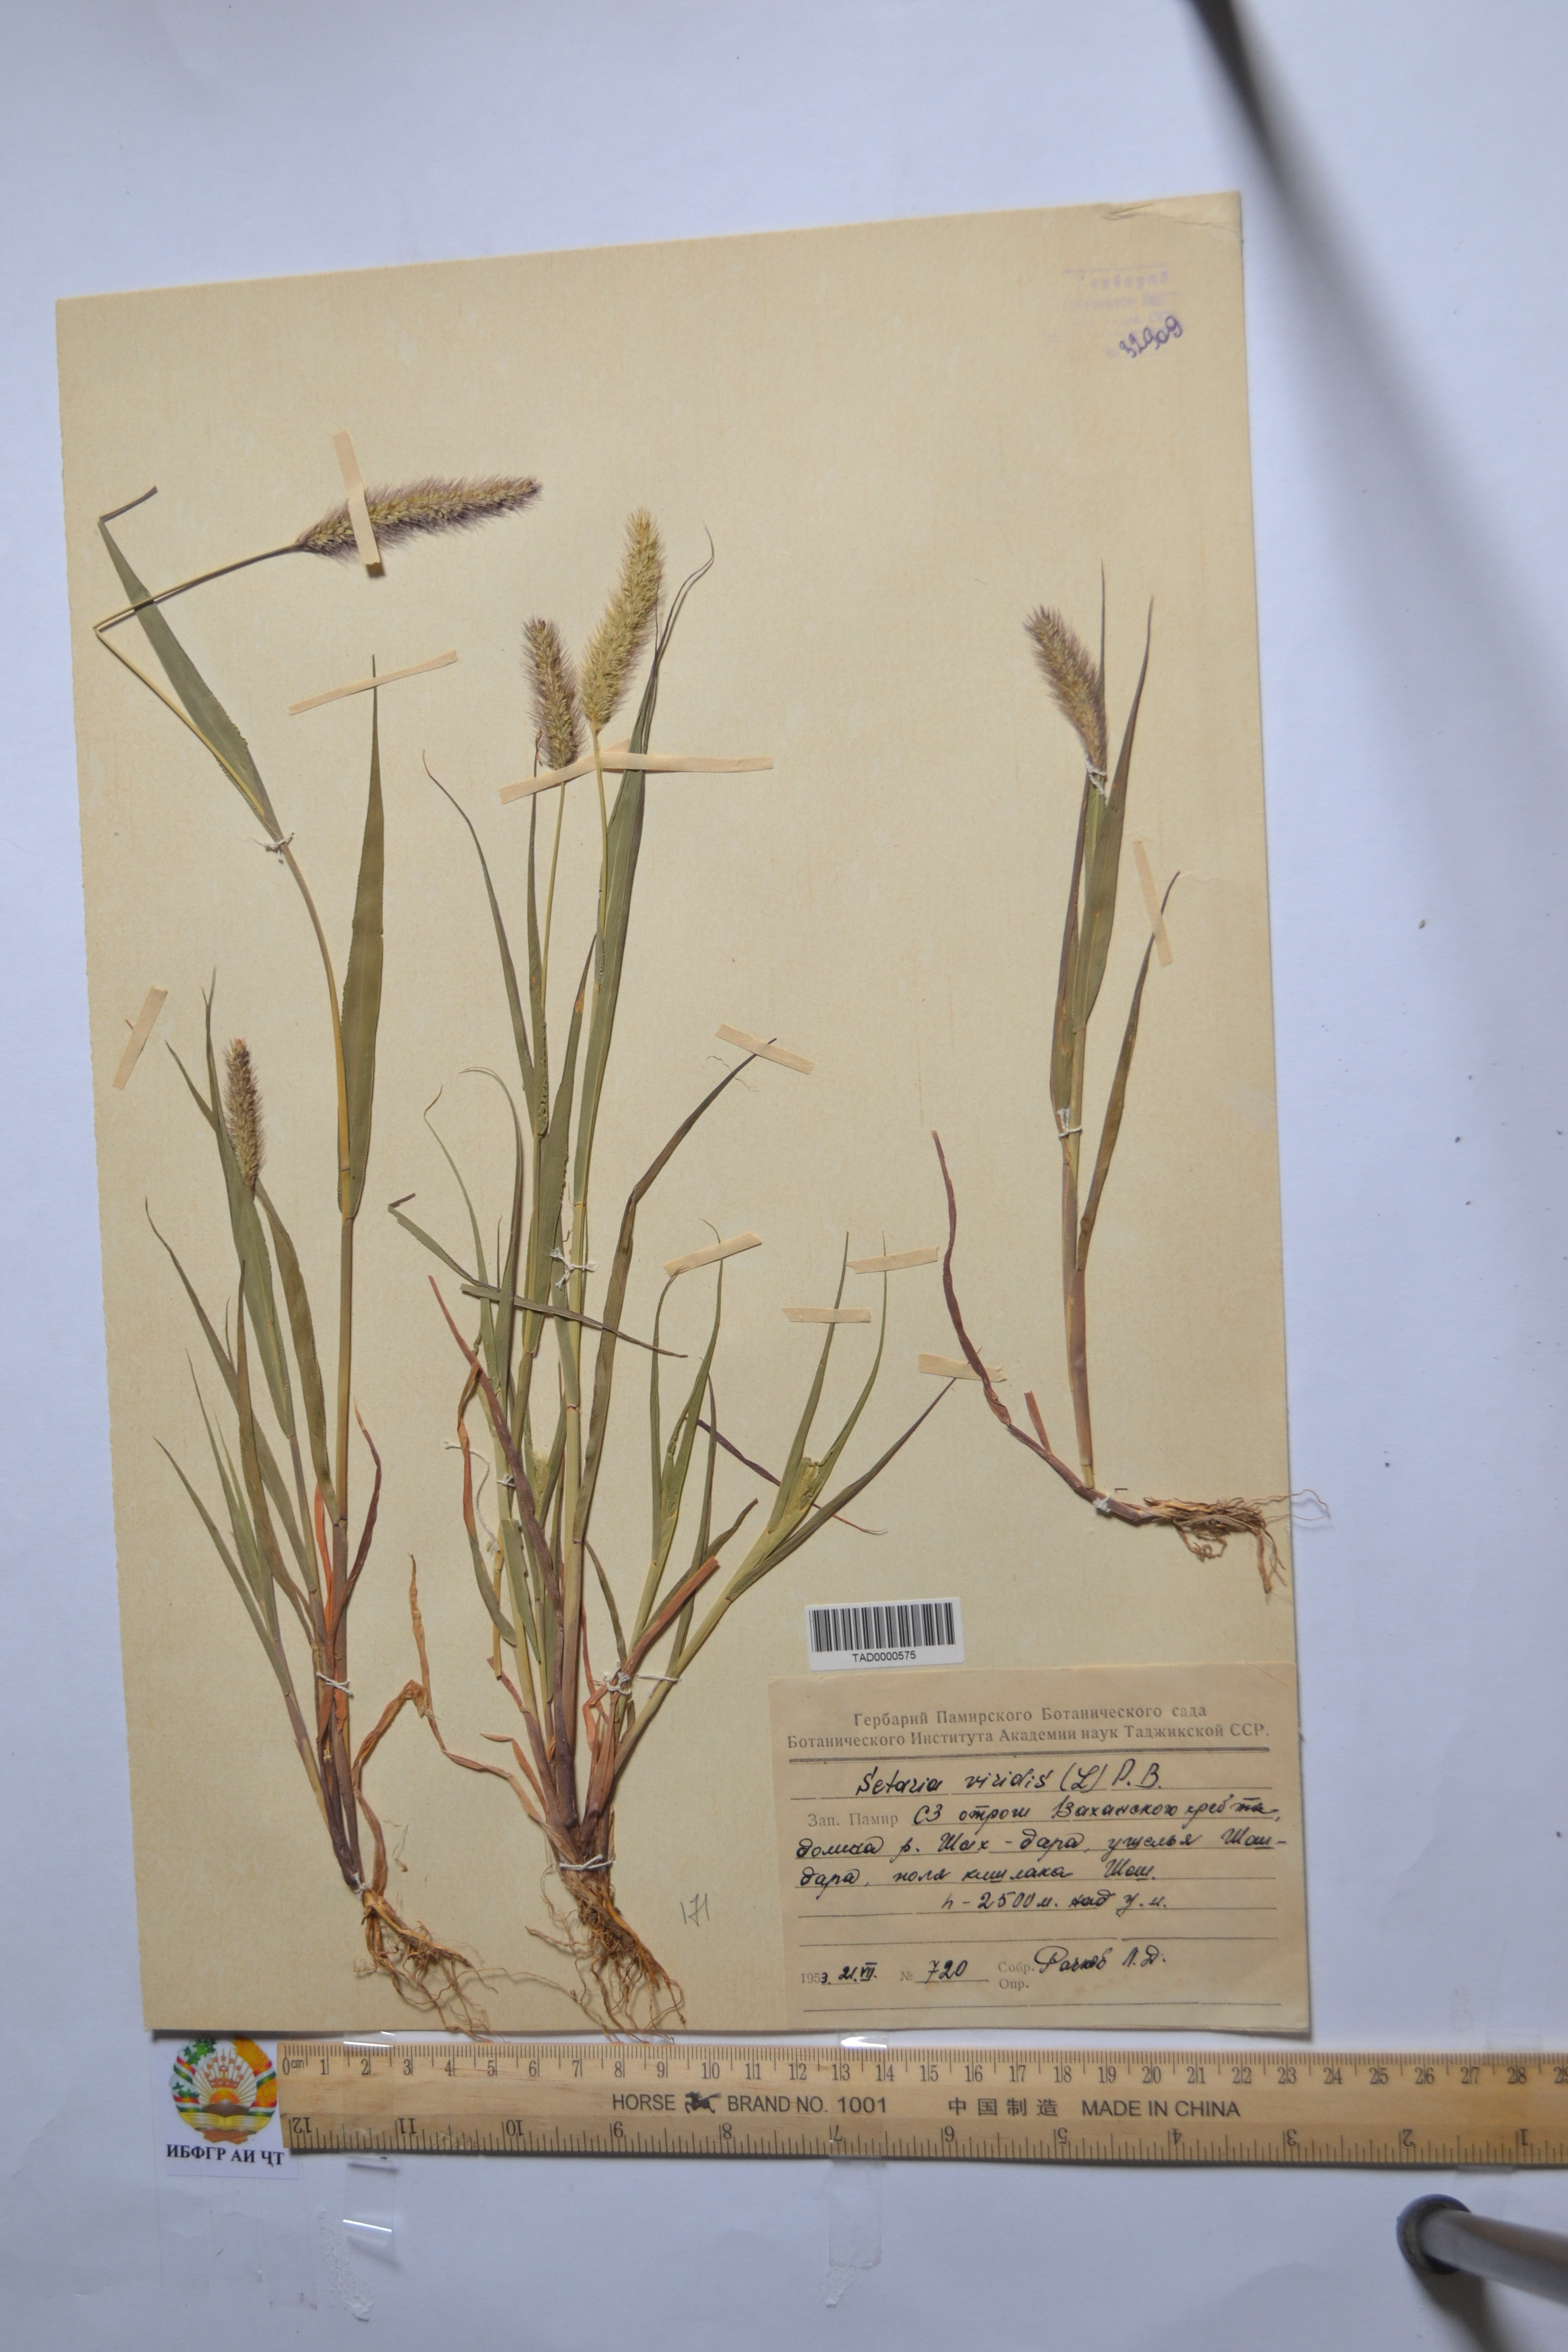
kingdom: Plantae
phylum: Tracheophyta
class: Liliopsida
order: Poales
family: Poaceae
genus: Setaria
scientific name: Setaria viridis
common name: Green bristlegrass
